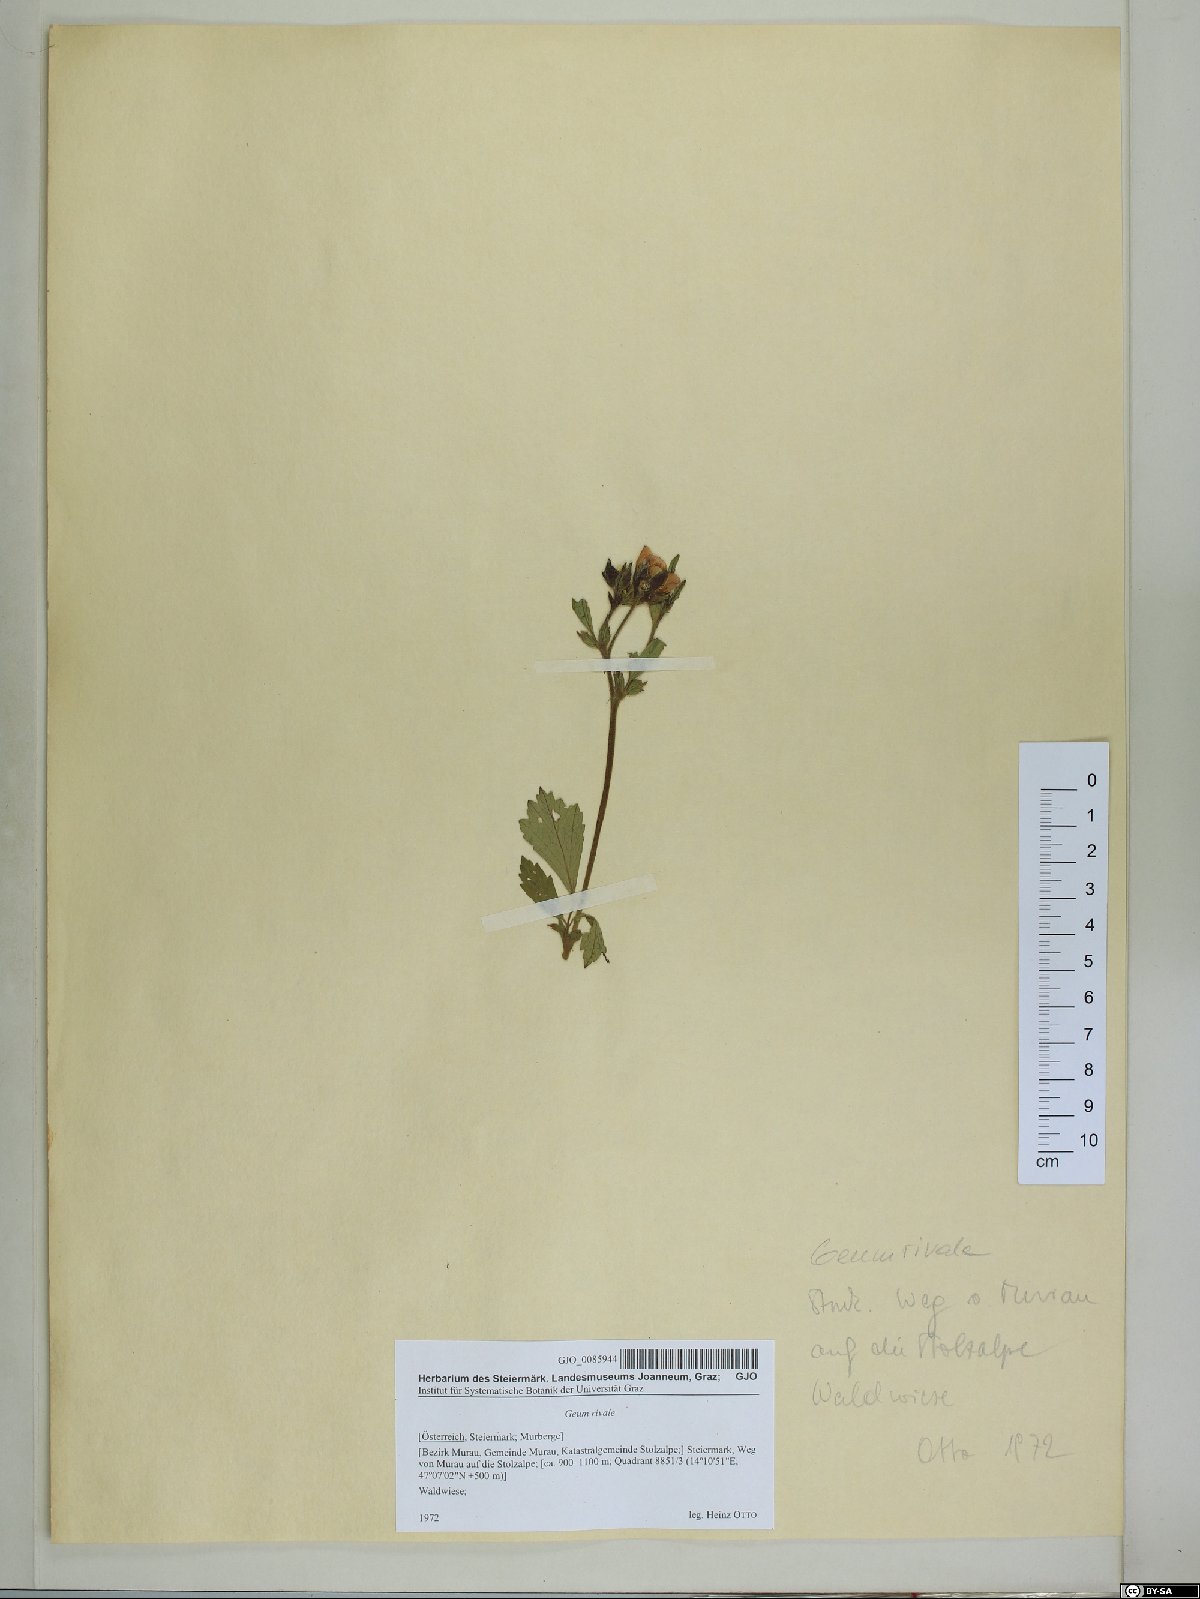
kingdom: Plantae
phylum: Tracheophyta
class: Magnoliopsida
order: Rosales
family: Rosaceae
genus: Geum
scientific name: Geum rivale
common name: Water avens
